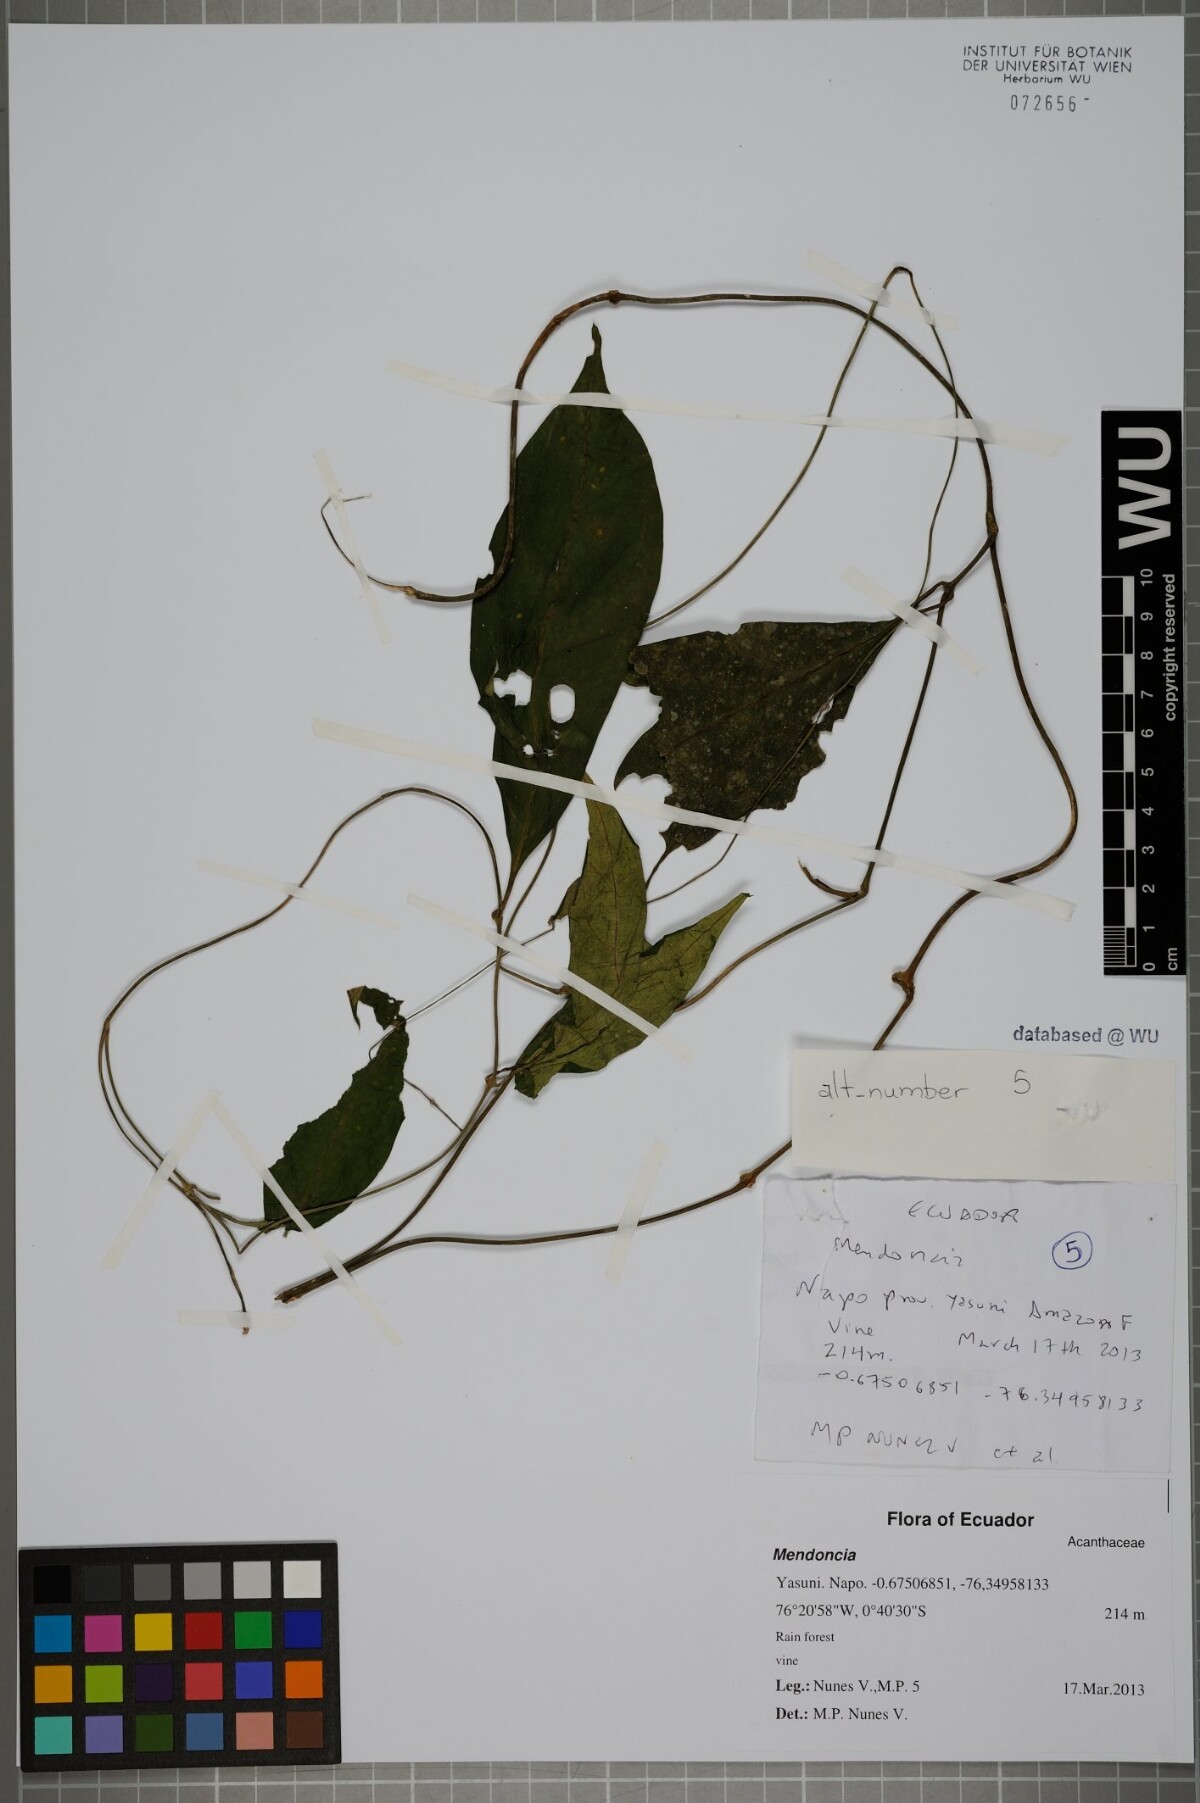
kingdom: Plantae
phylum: Tracheophyta
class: Magnoliopsida
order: Lamiales
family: Acanthaceae
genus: Mendoncia
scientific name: Mendoncia
